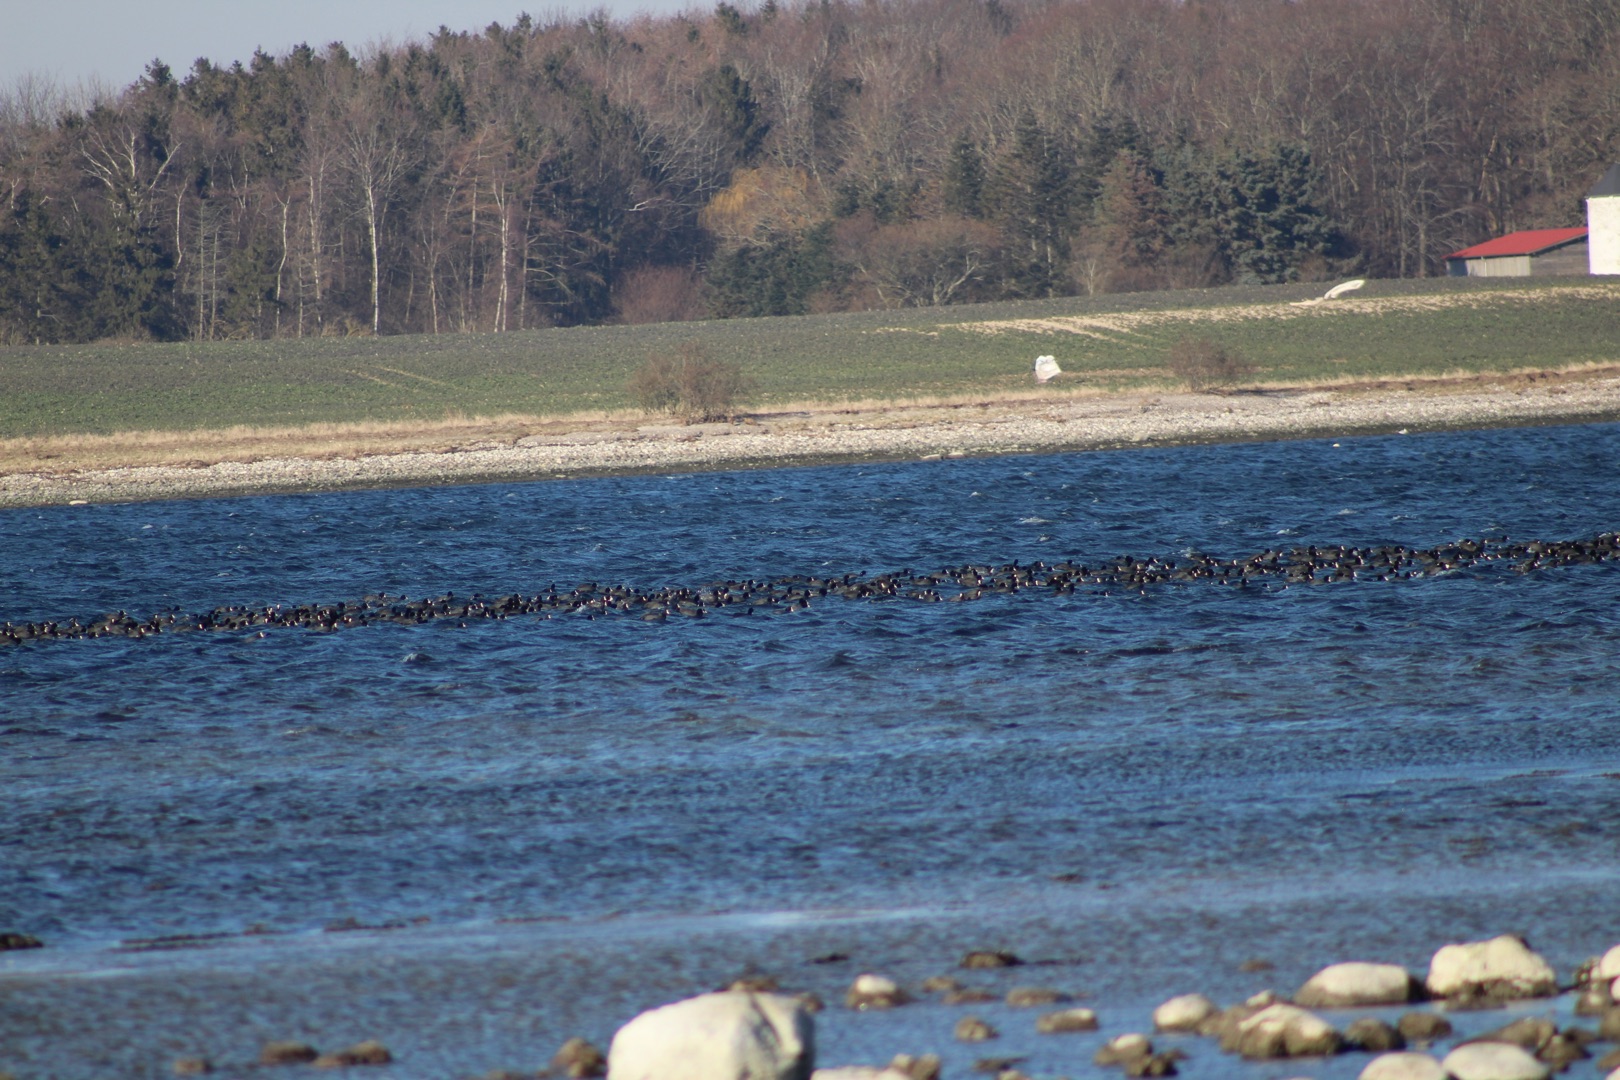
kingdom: Animalia
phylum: Chordata
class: Aves
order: Gruiformes
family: Rallidae
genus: Fulica
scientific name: Fulica atra
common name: Blishøne
